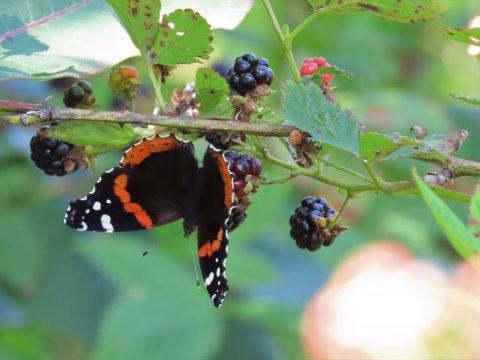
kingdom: Animalia
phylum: Arthropoda
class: Insecta
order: Lepidoptera
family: Nymphalidae
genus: Vanessa
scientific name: Vanessa atalanta
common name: Red Admiral
